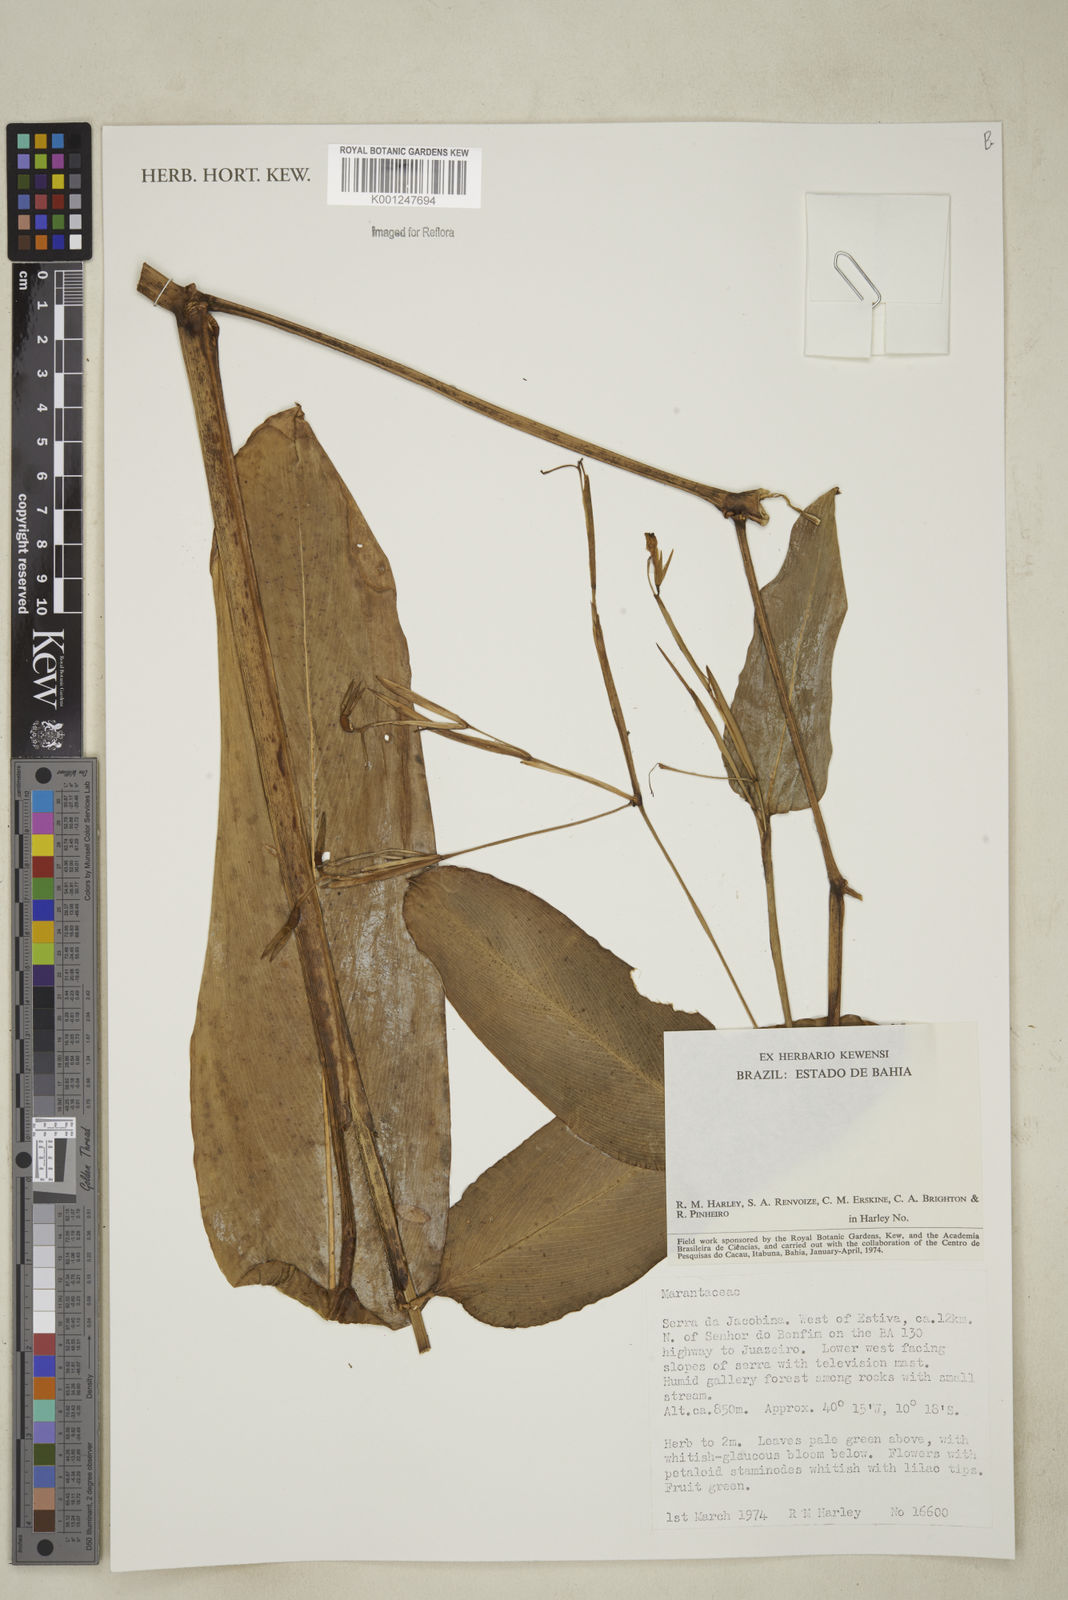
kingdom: Plantae
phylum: Tracheophyta
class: Liliopsida
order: Zingiberales
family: Marantaceae
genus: Maranta
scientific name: Maranta
